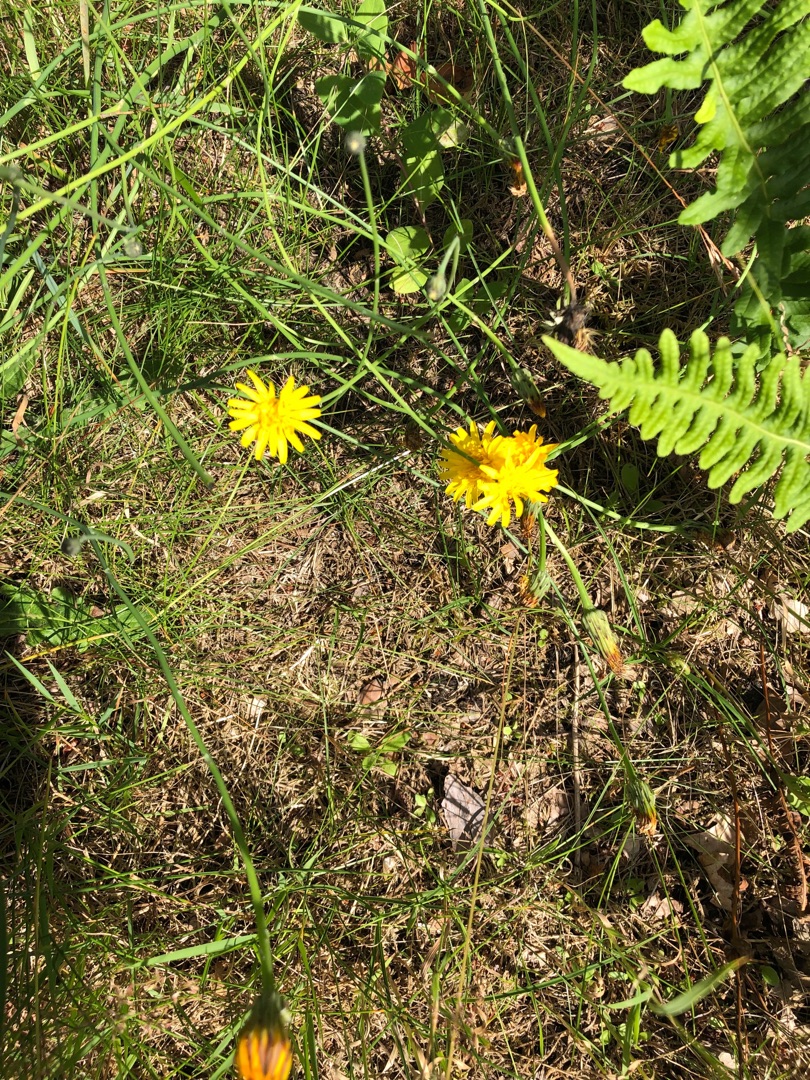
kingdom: Plantae
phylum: Tracheophyta
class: Magnoliopsida
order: Asterales
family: Asteraceae
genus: Hypochaeris
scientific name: Hypochaeris radicata
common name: Almindelig kongepen
